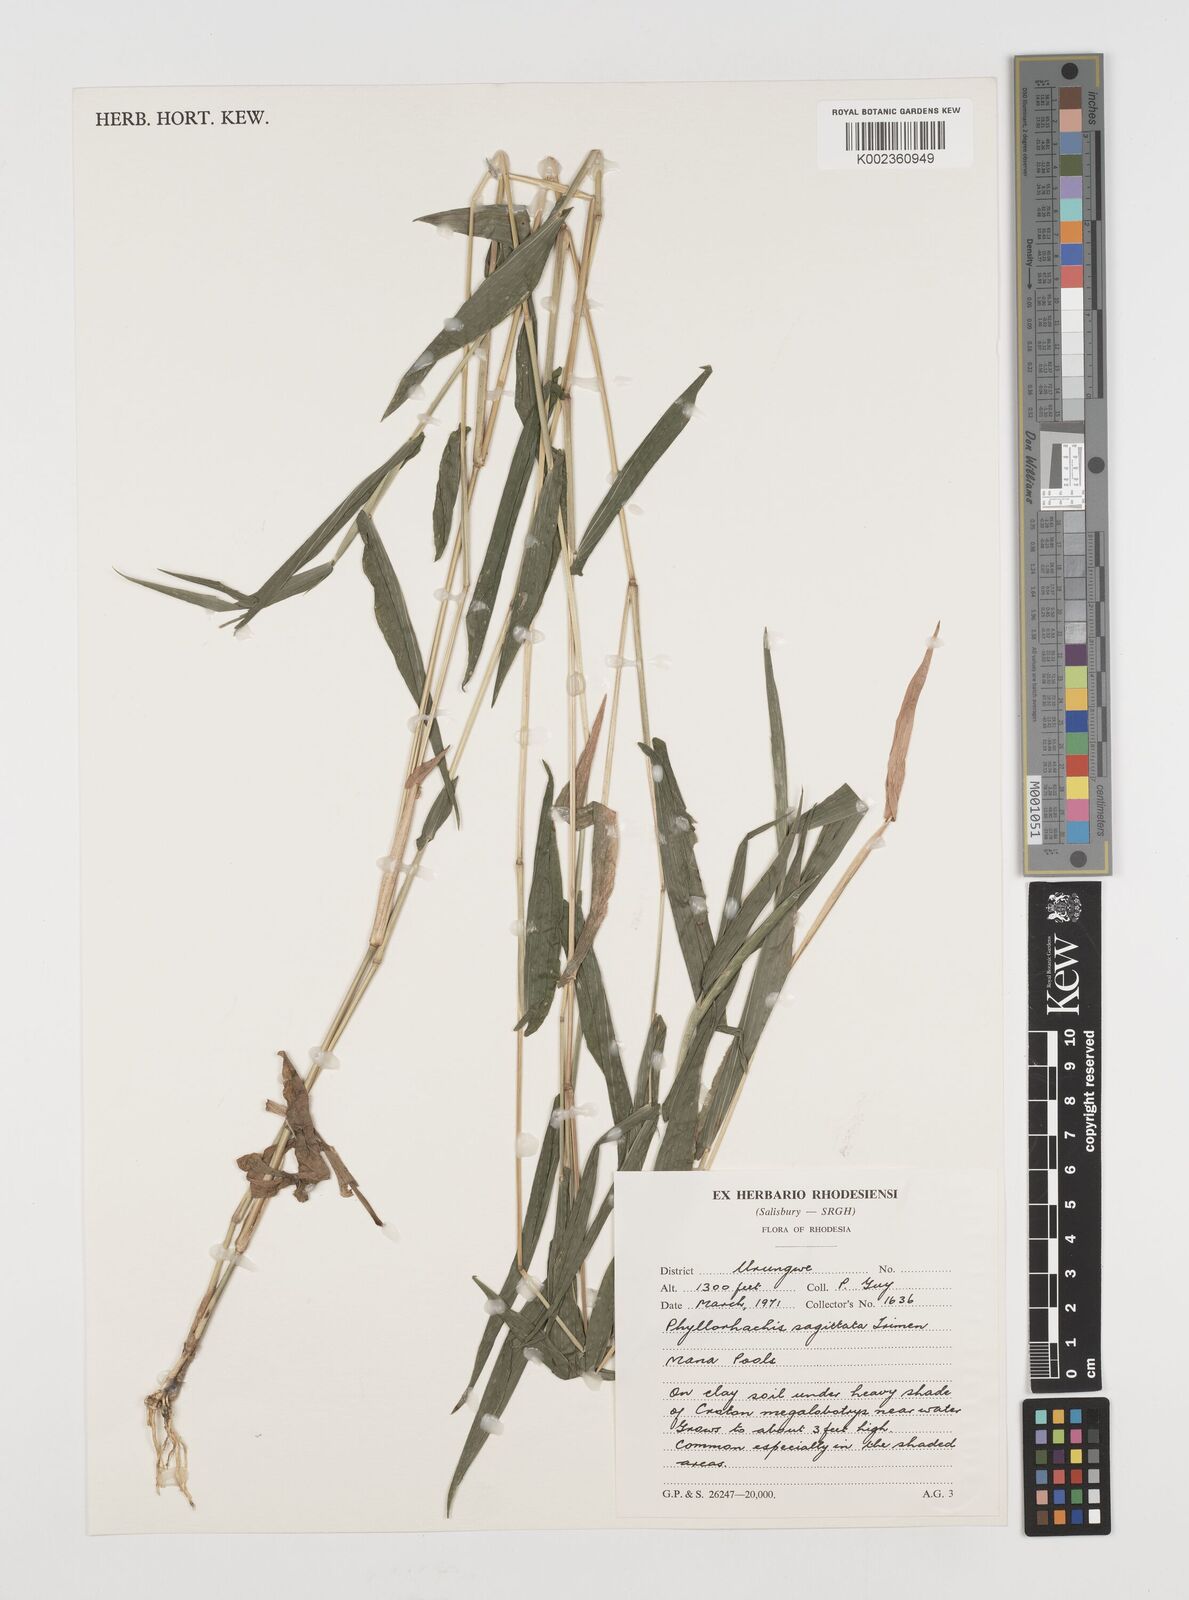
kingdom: Plantae
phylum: Tracheophyta
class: Liliopsida
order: Poales
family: Poaceae
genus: Phyllorachis
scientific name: Phyllorachis sagittata
